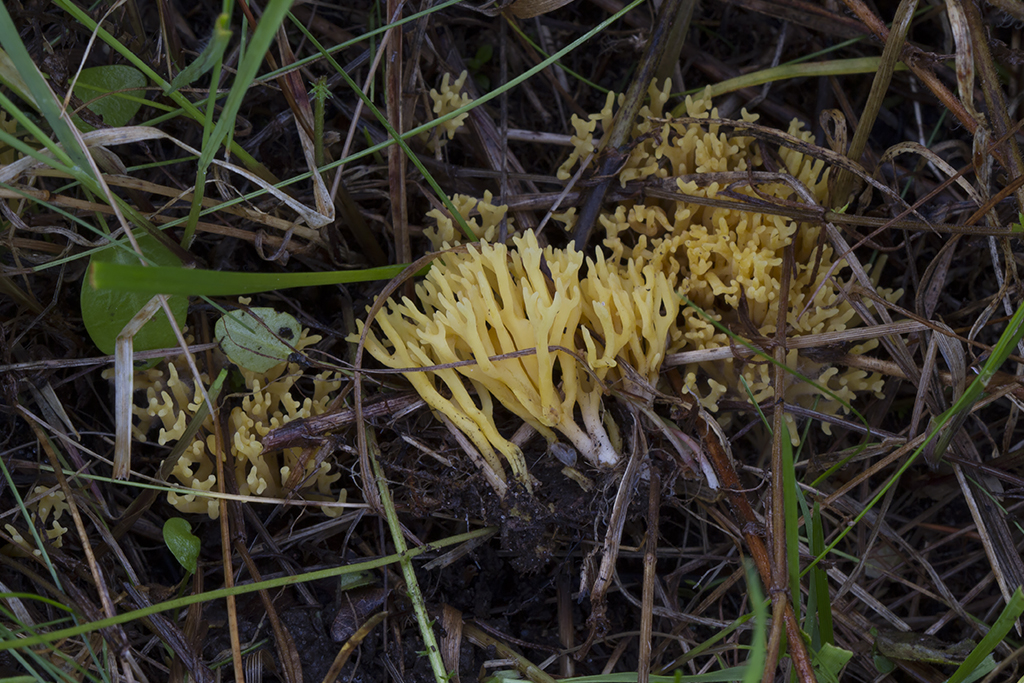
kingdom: Fungi
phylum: Basidiomycota
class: Agaricomycetes
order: Agaricales
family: Clavariaceae
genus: Clavulinopsis
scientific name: Clavulinopsis corniculata
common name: eng-køllesvamp
